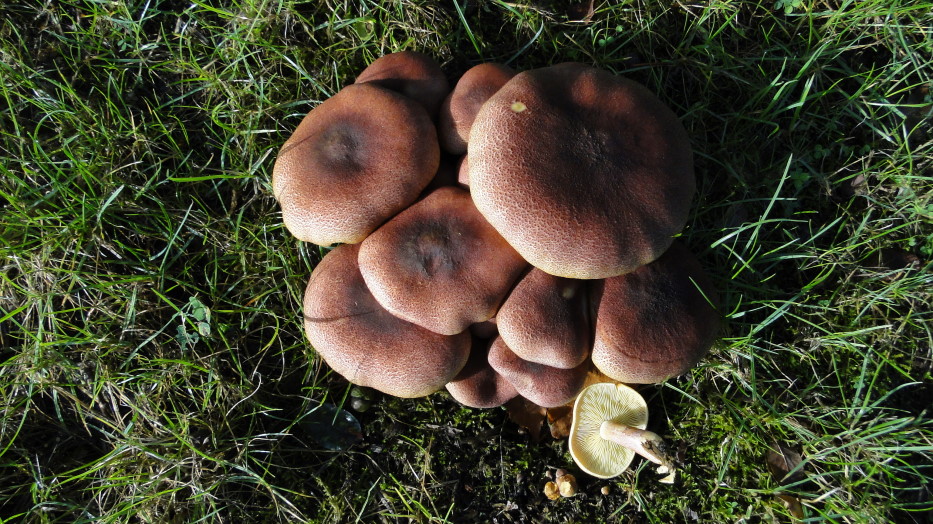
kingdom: Fungi
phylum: Basidiomycota
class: Agaricomycetes
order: Agaricales
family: Tricholomataceae
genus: Tricholomopsis
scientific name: Tricholomopsis rutilans
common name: purpur-væbnerhat
